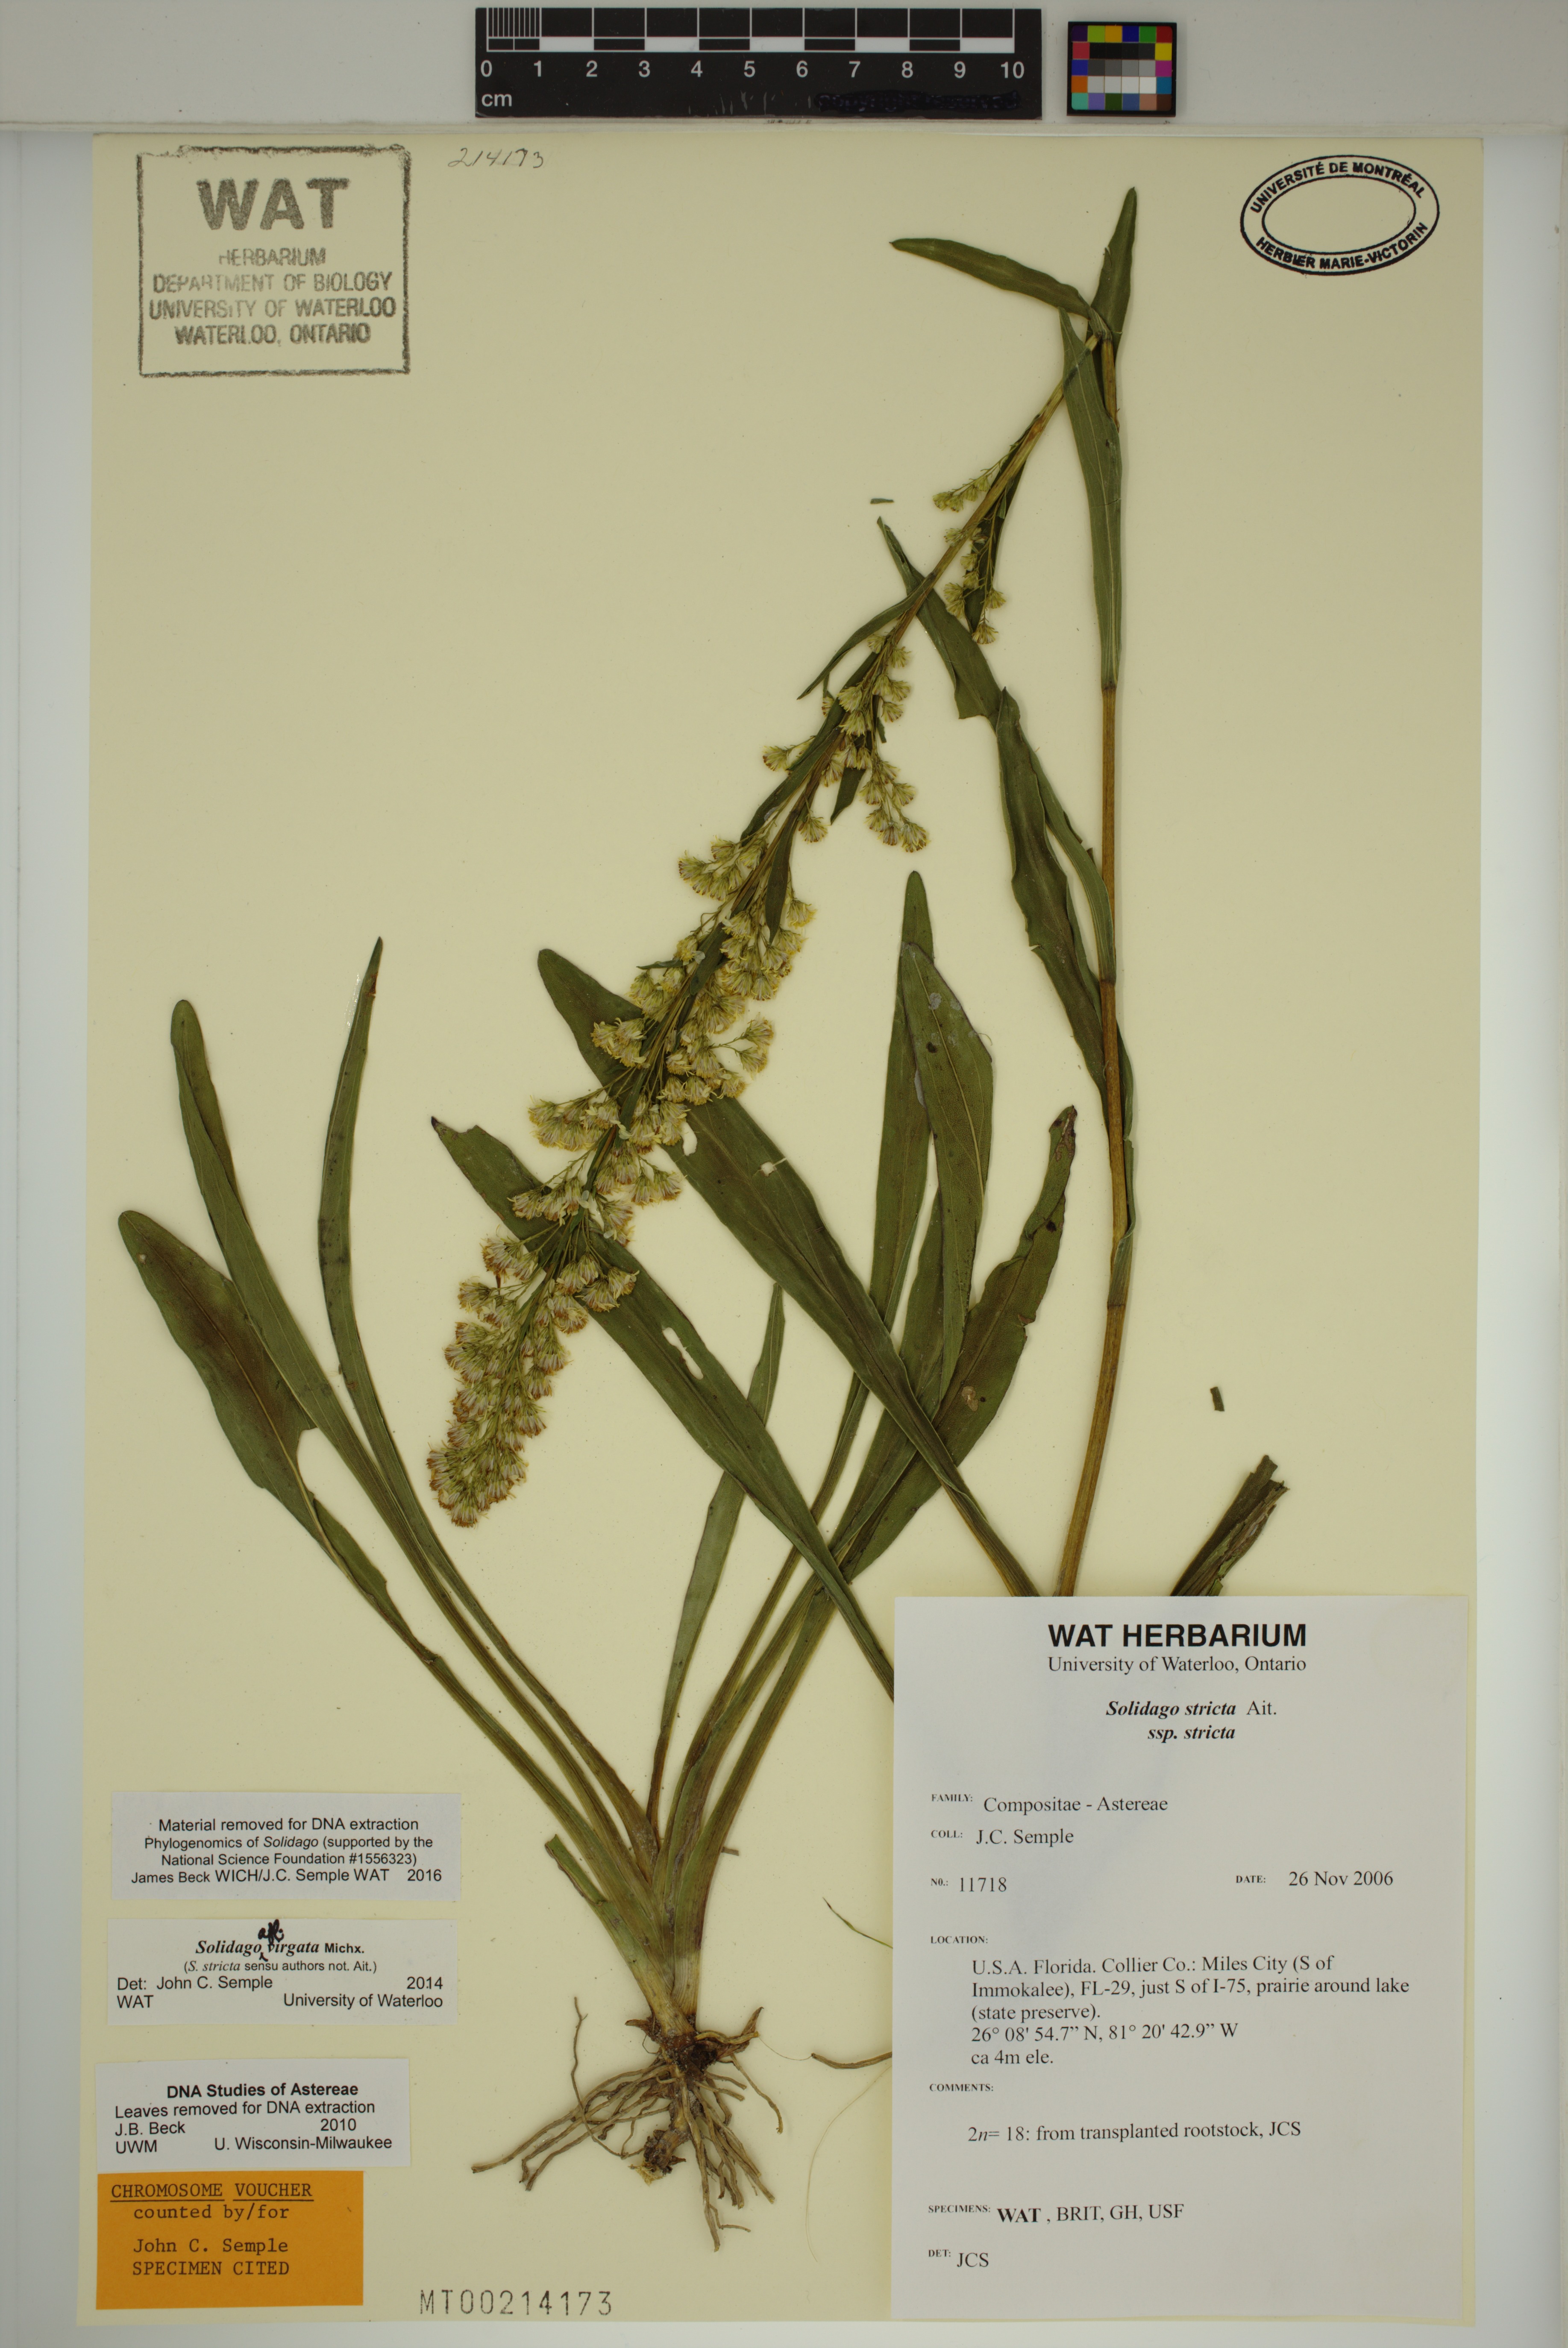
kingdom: Plantae
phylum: Tracheophyta
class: Magnoliopsida
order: Asterales
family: Asteraceae
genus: Solidago
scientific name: Solidago virgata
